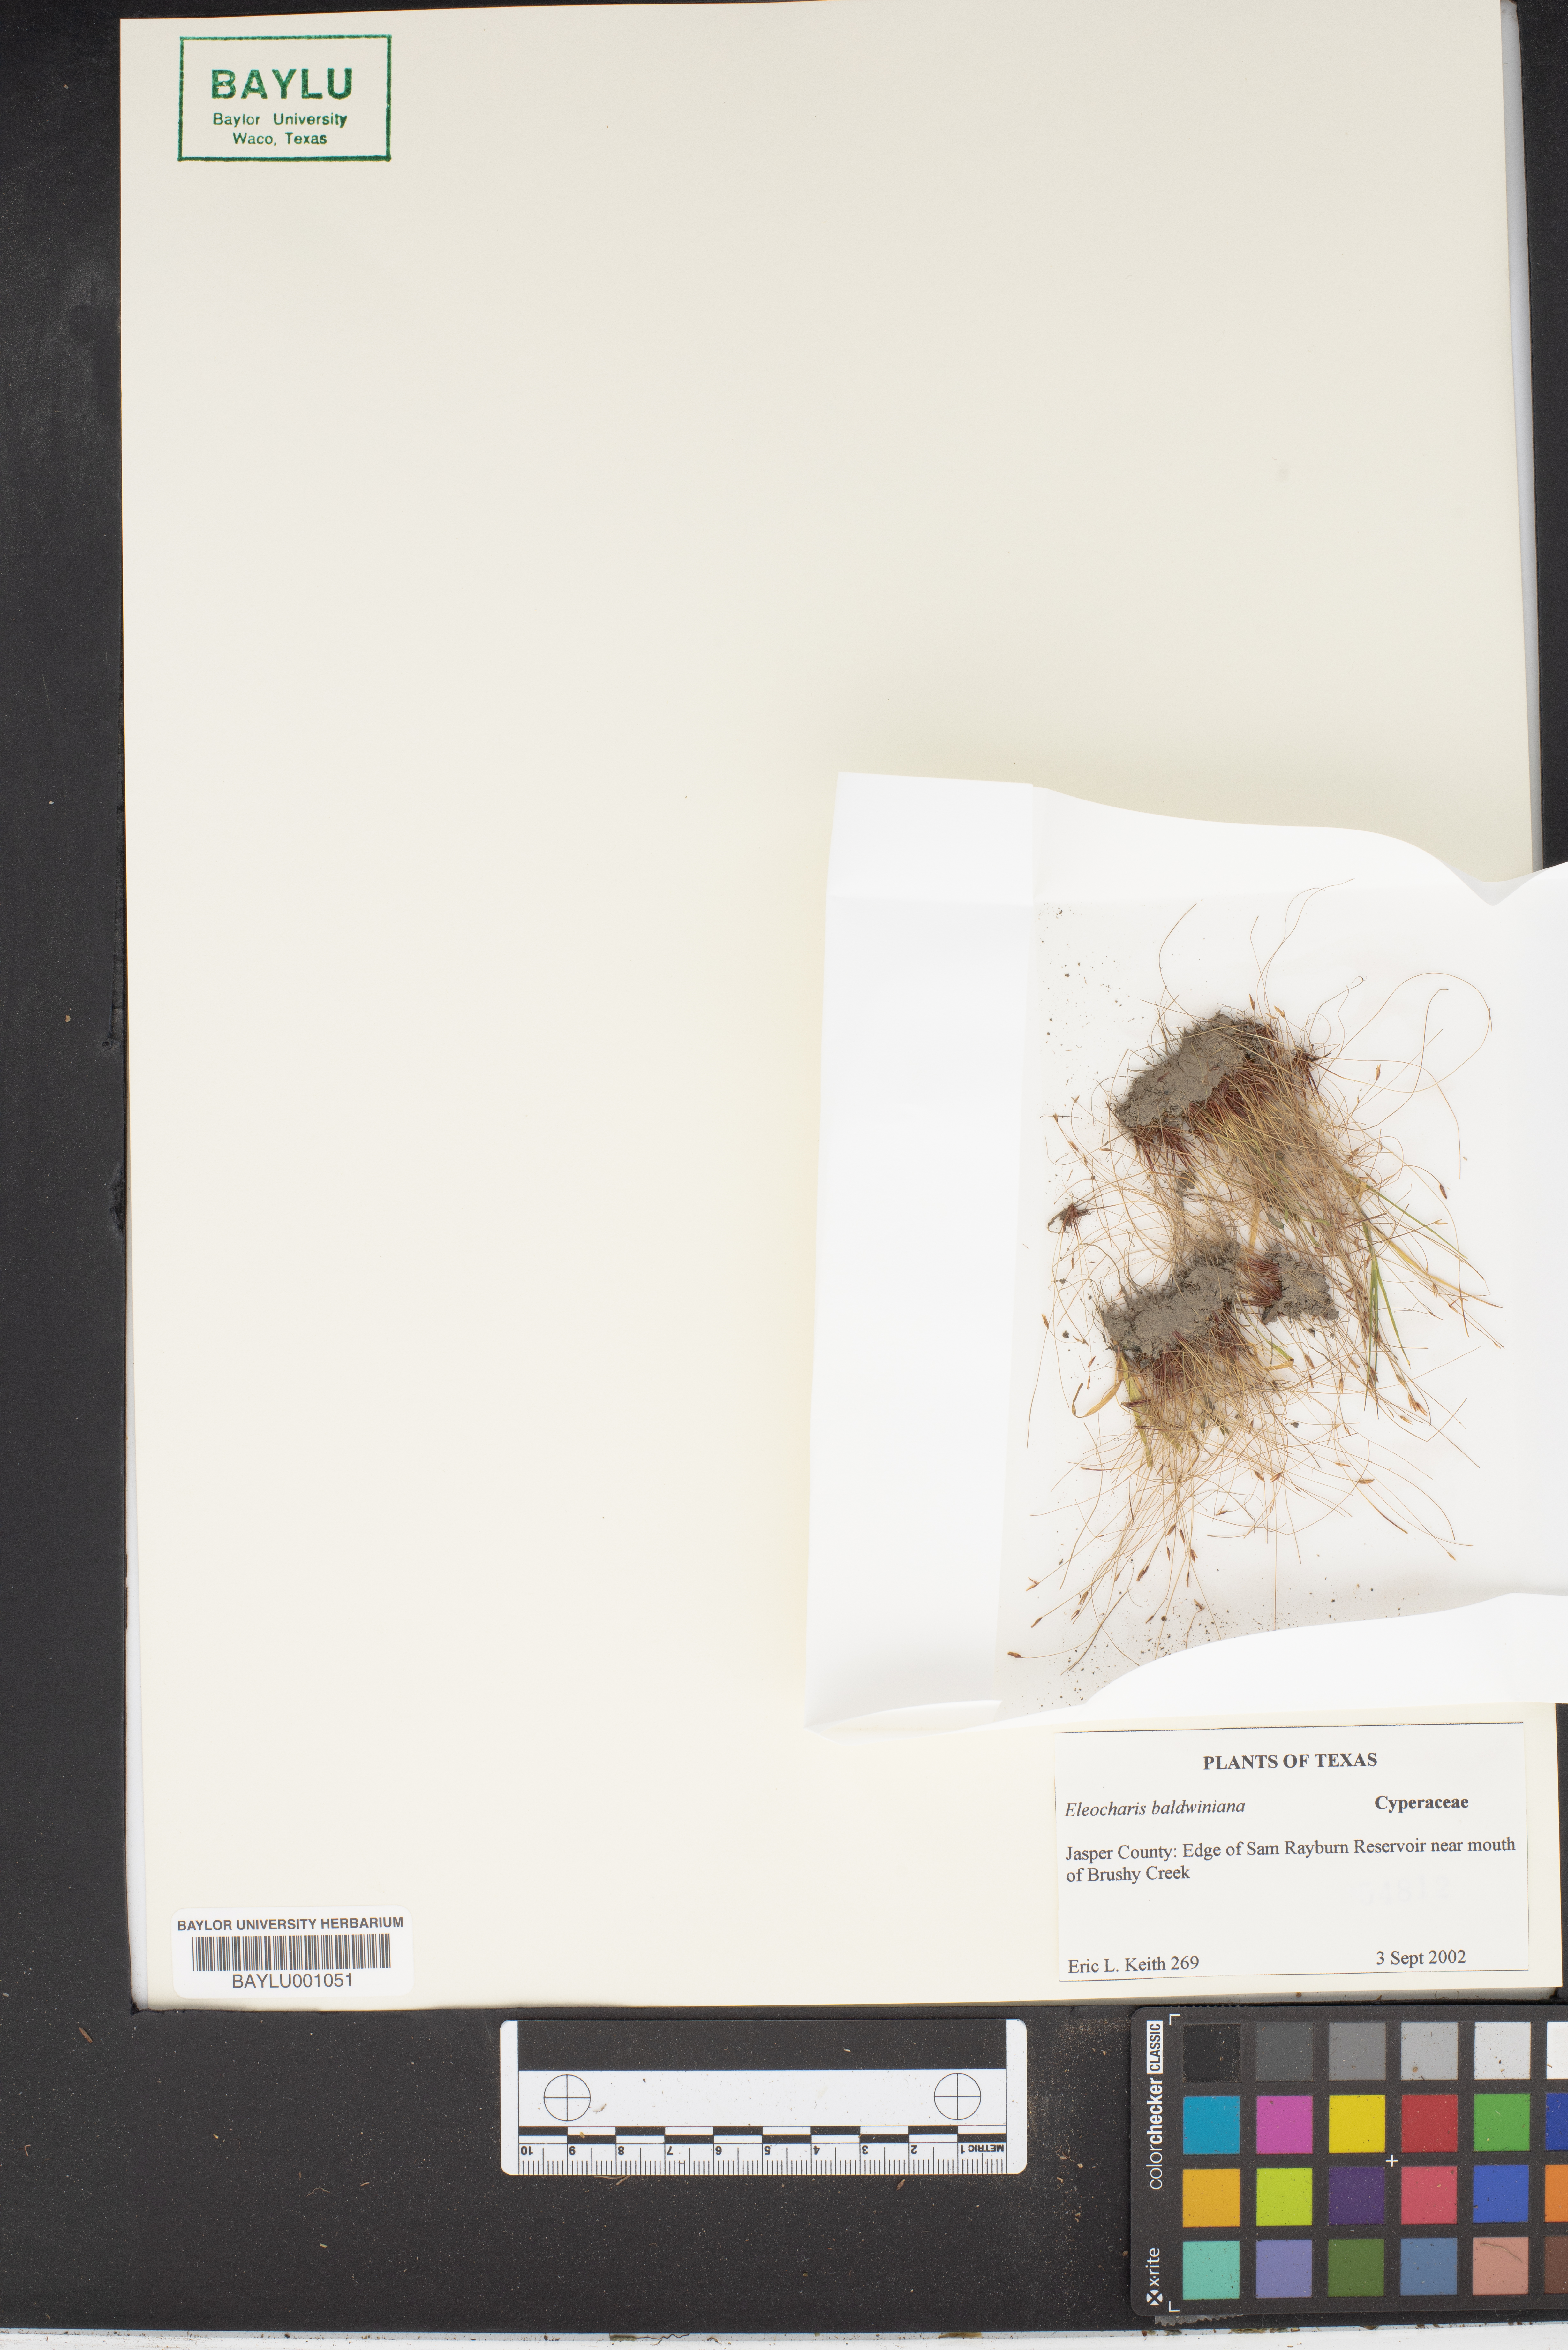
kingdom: Plantae
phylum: Tracheophyta
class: Liliopsida
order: Poales
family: Cyperaceae
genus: Eleocharis
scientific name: Eleocharis
